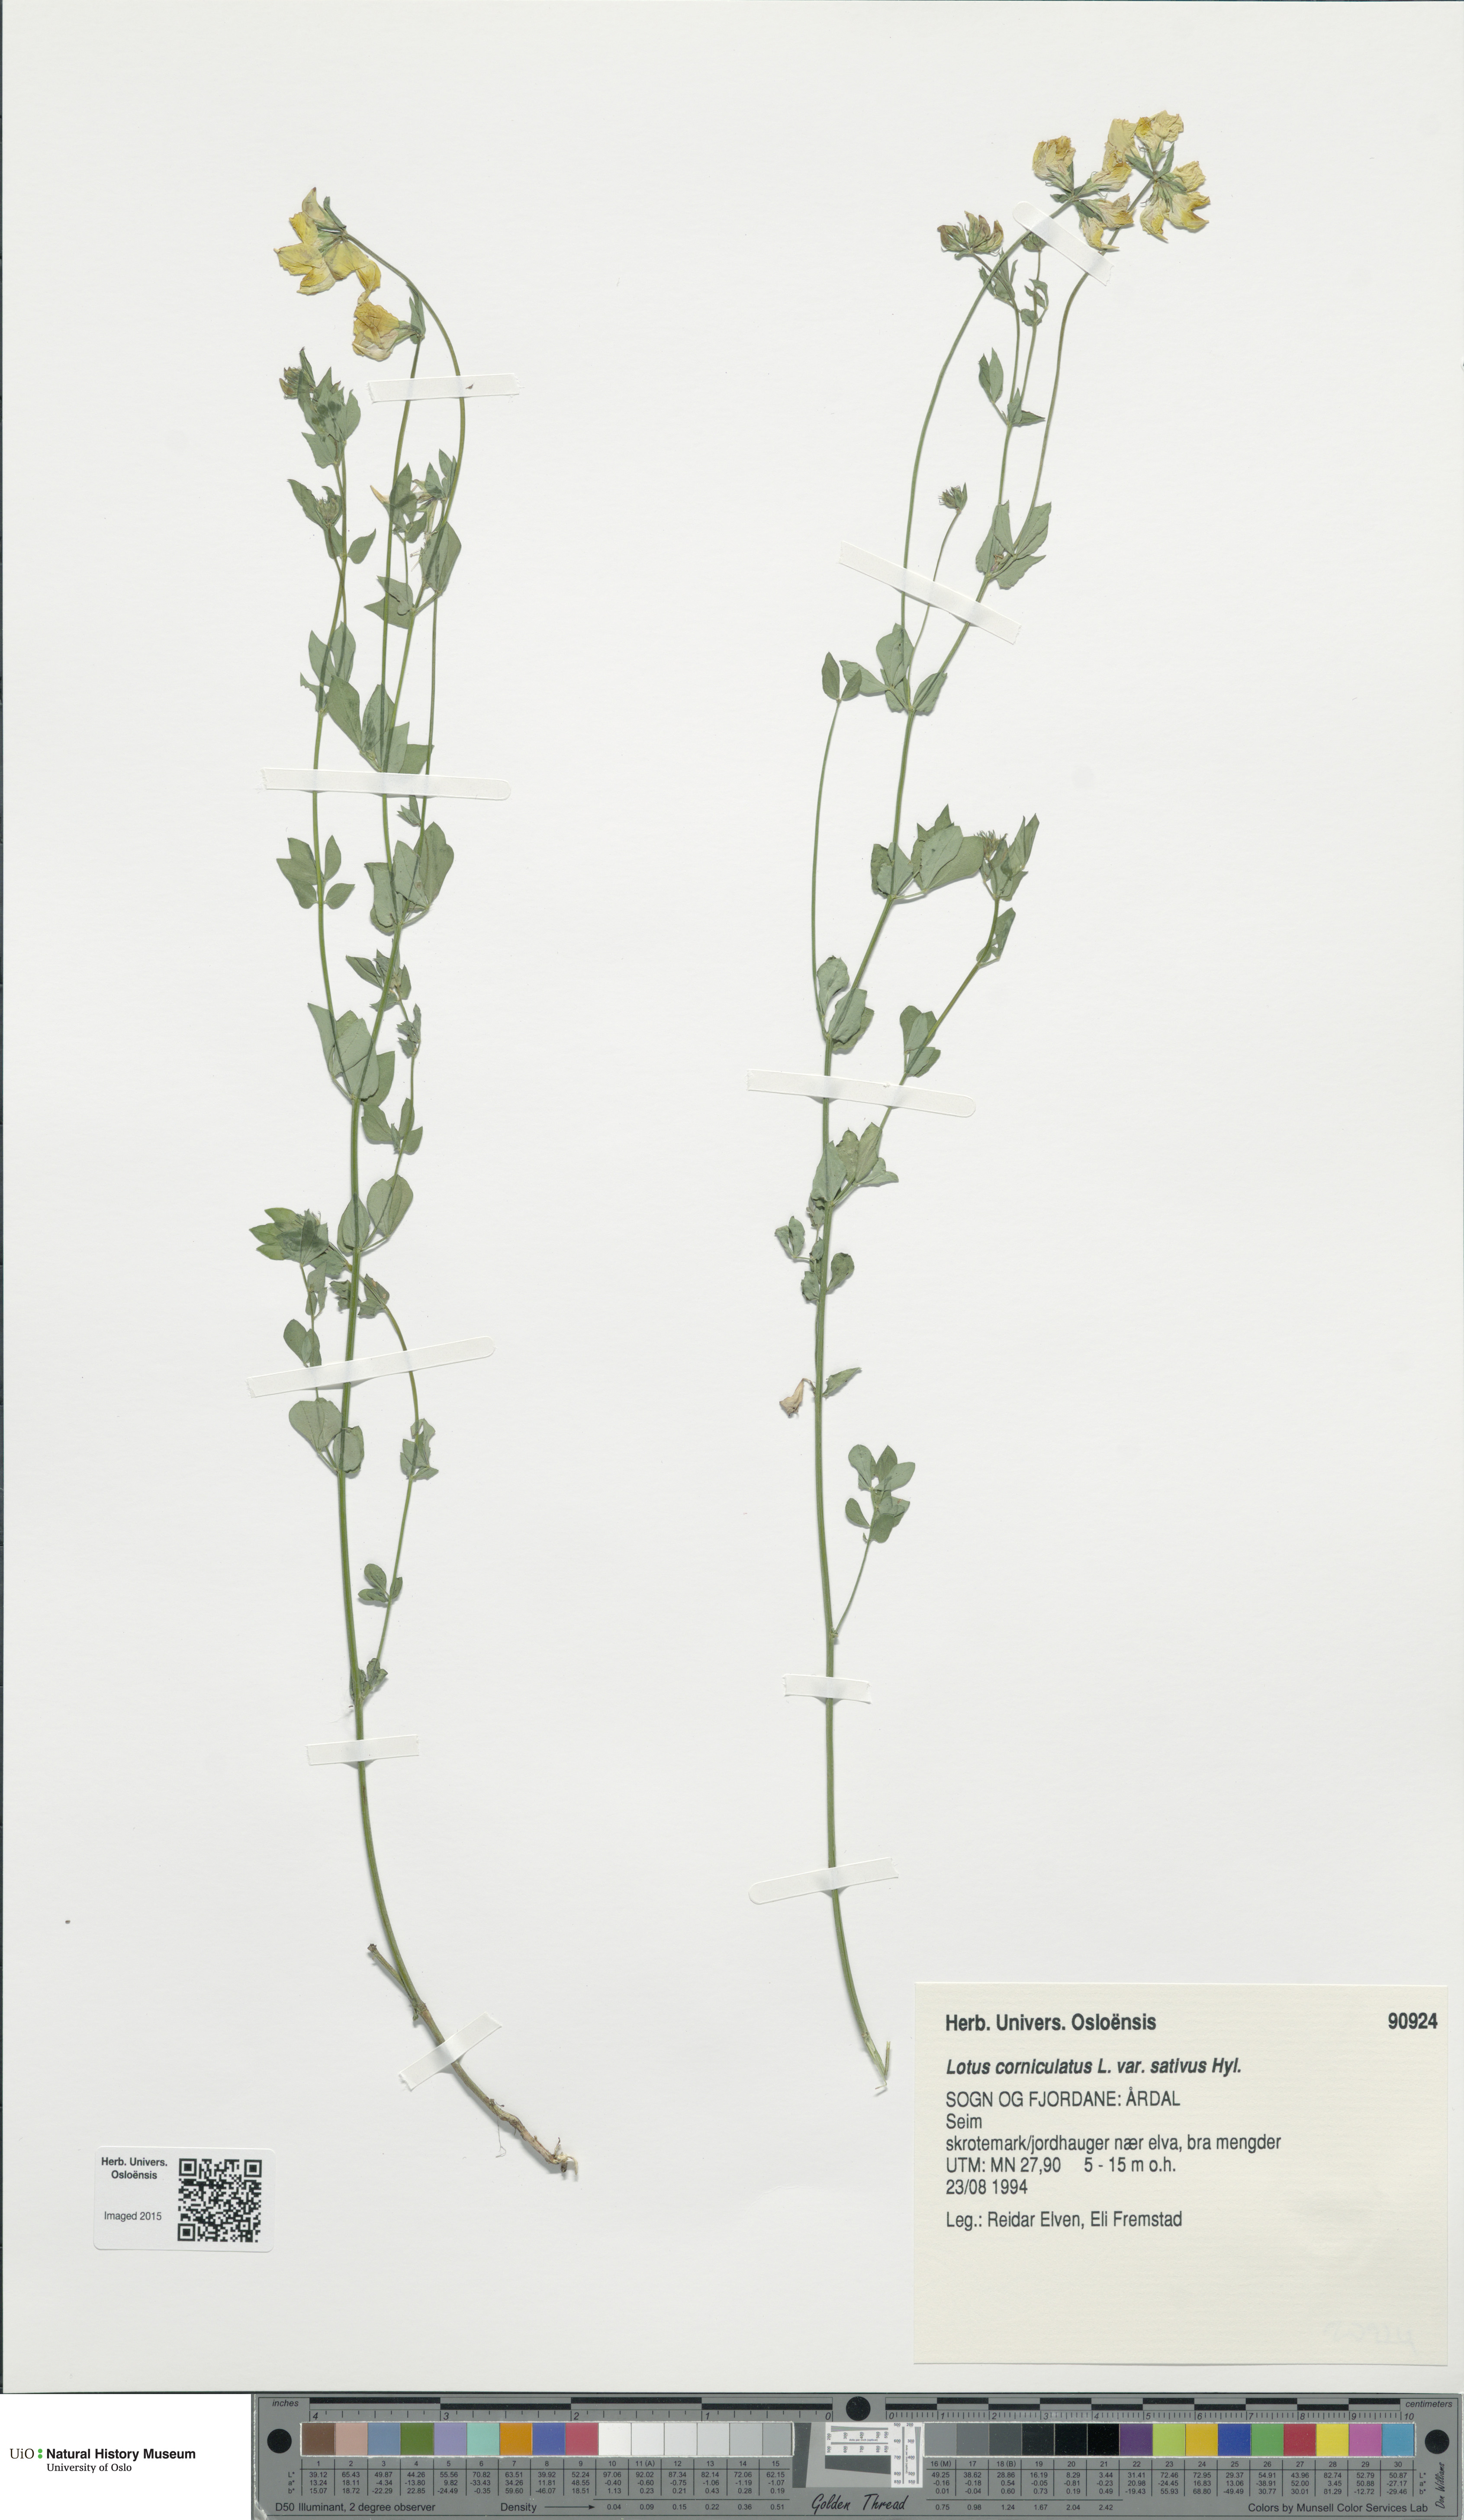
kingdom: Plantae
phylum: Tracheophyta
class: Magnoliopsida
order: Fabales
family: Fabaceae
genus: Lotus
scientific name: Lotus corniculatus
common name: Common bird's-foot-trefoil
